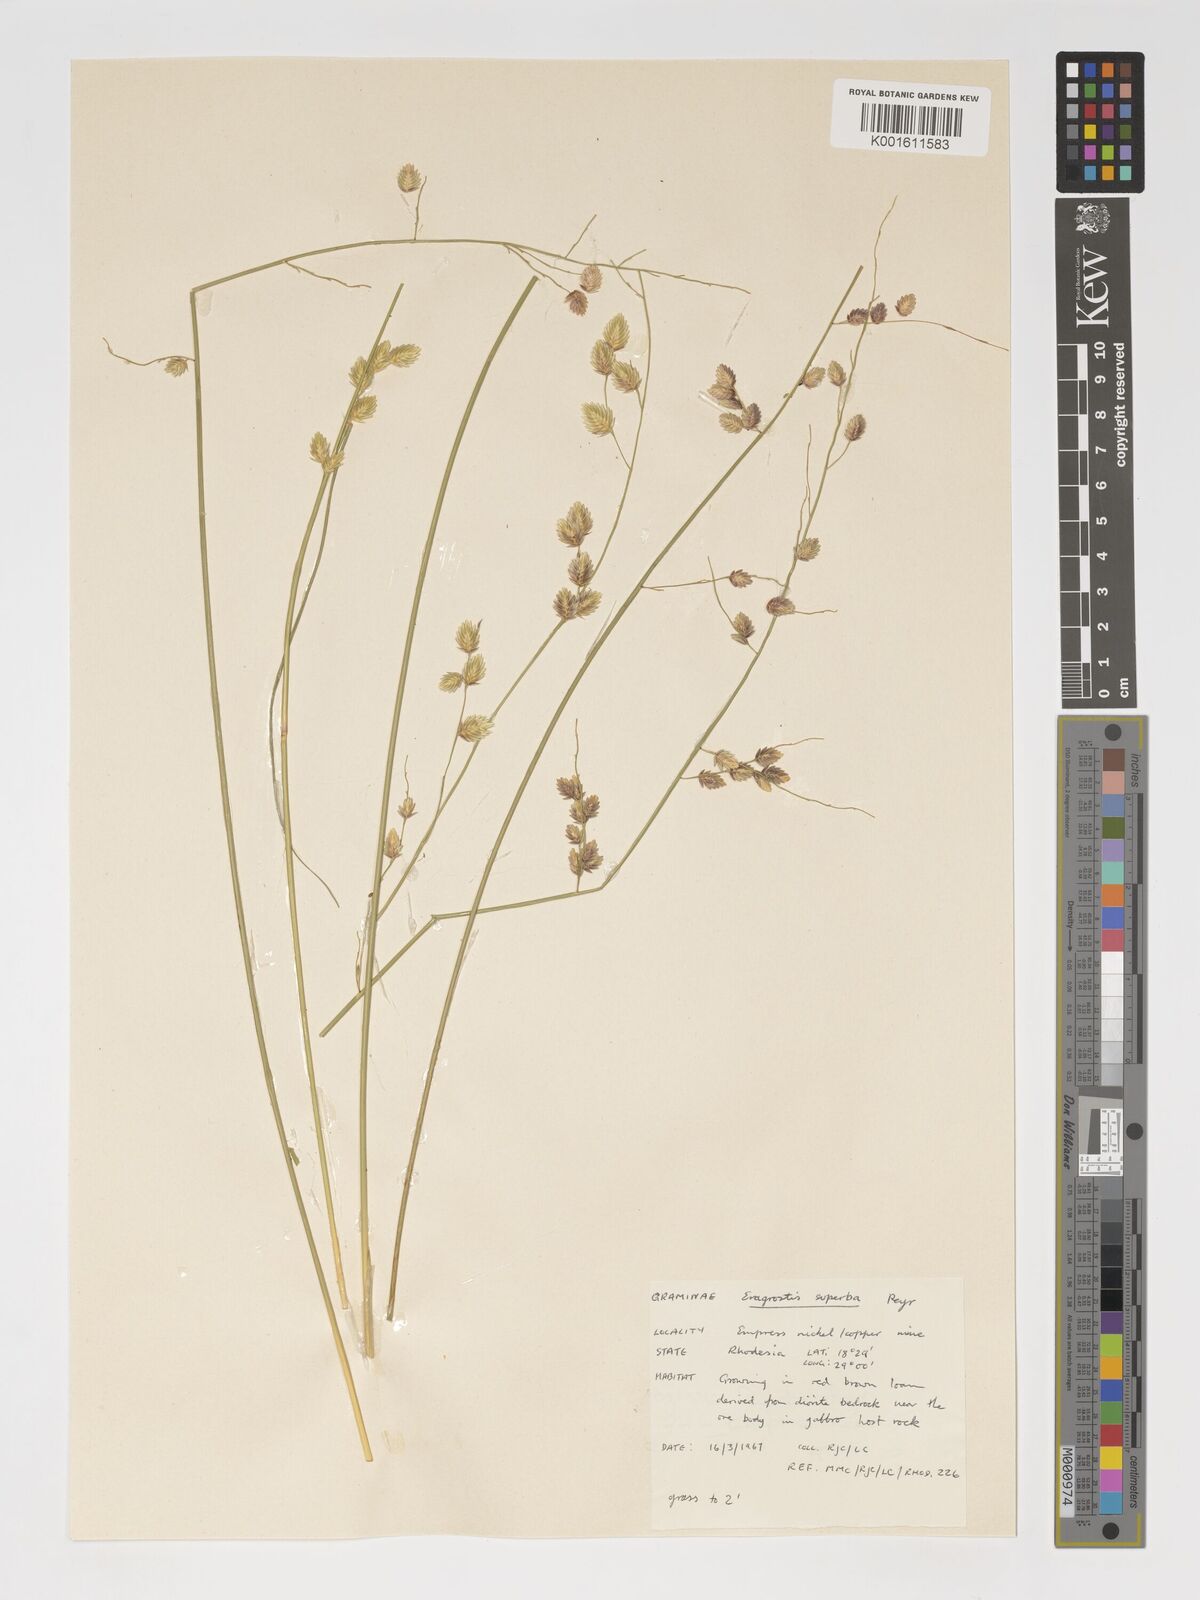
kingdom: Plantae
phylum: Tracheophyta
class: Liliopsida
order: Poales
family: Poaceae
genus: Eragrostis
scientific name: Eragrostis superba
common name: Wilman lovegrass
